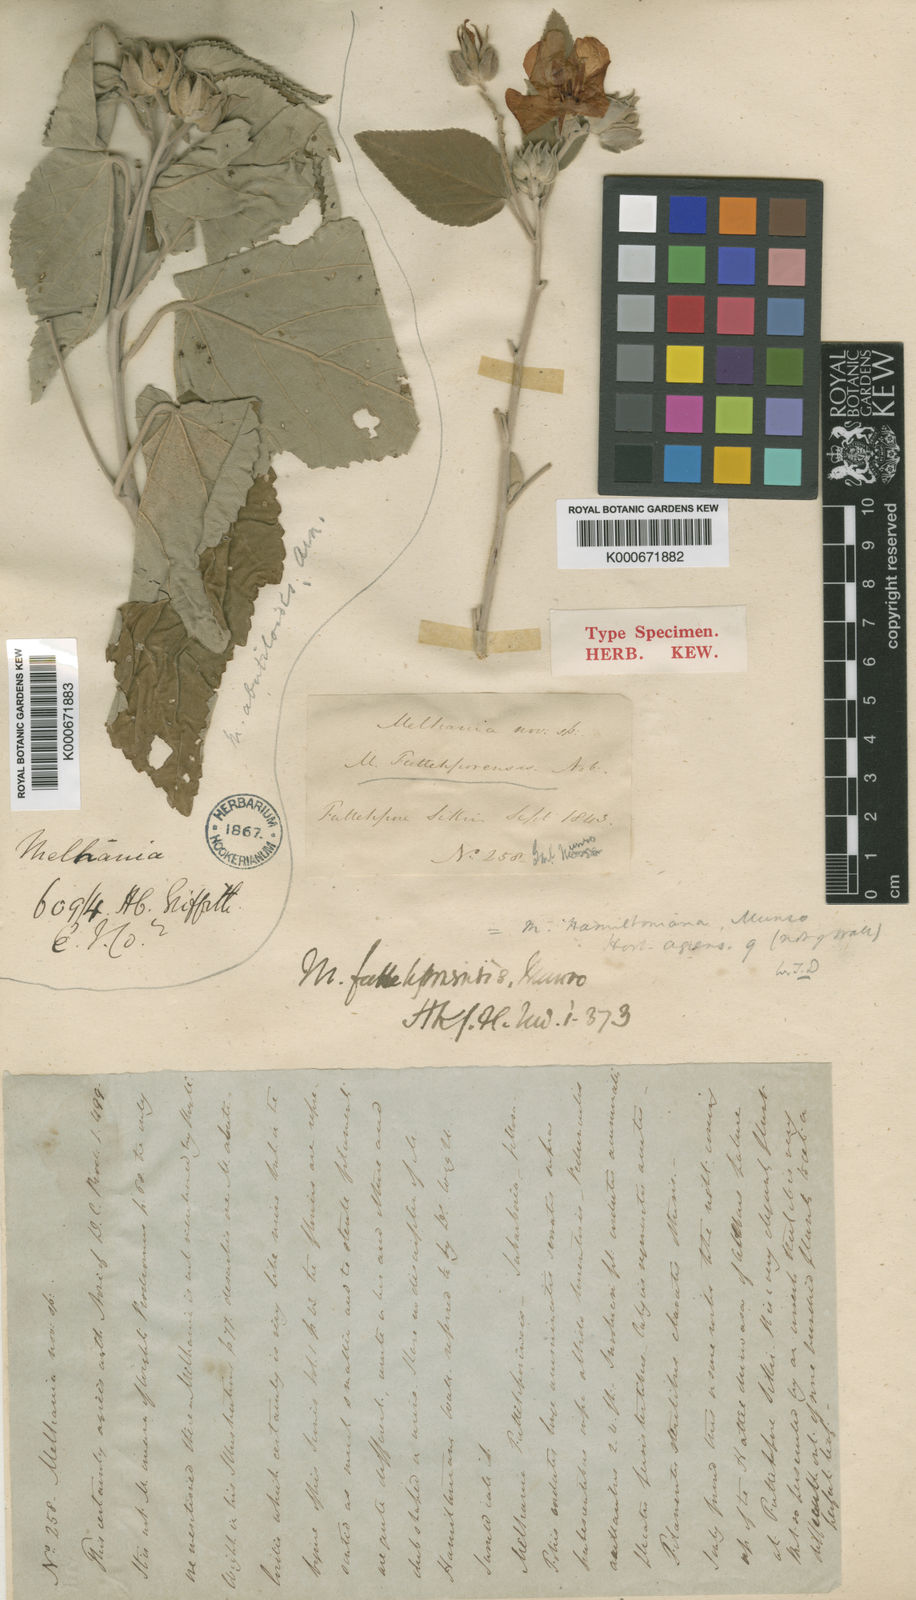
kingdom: Plantae
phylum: Tracheophyta
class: Magnoliopsida
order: Malvales
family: Malvaceae
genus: Melhania
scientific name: Melhania futteyporensis
